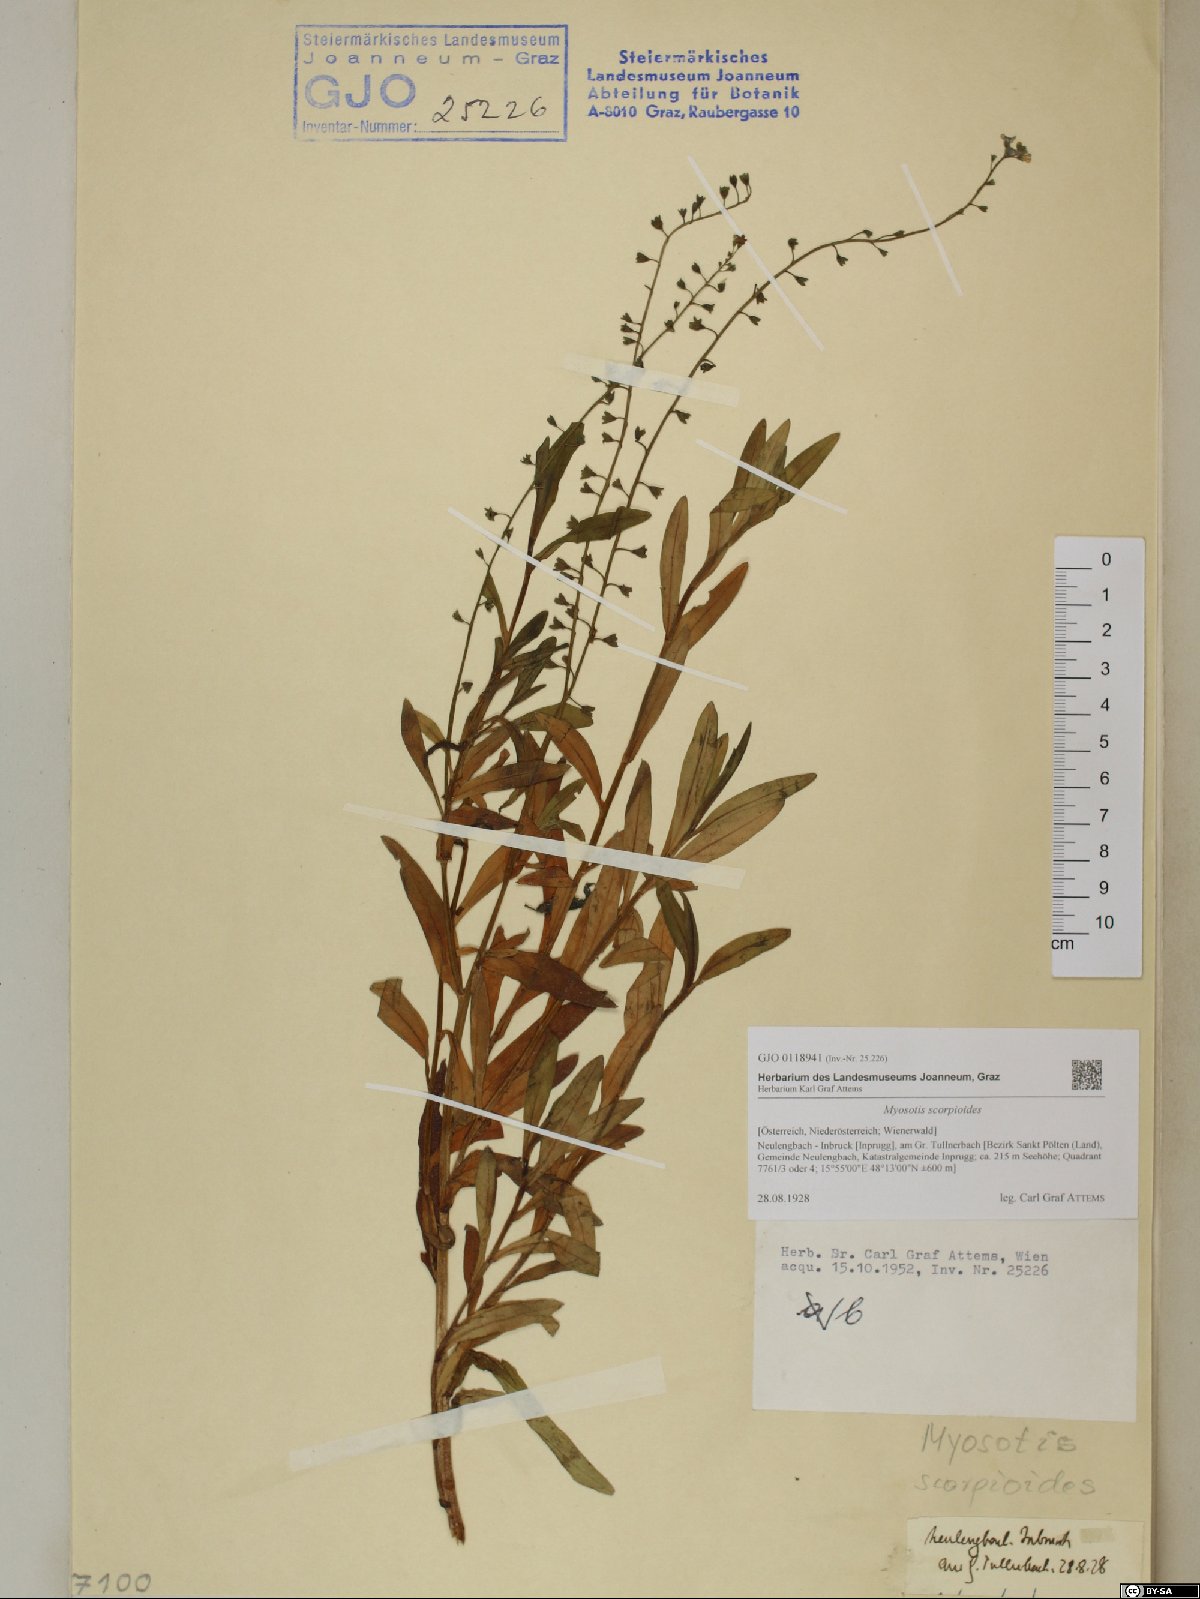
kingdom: Plantae
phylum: Tracheophyta
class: Magnoliopsida
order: Boraginales
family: Boraginaceae
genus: Myosotis
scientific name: Myosotis scorpioides
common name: Water forget-me-not
